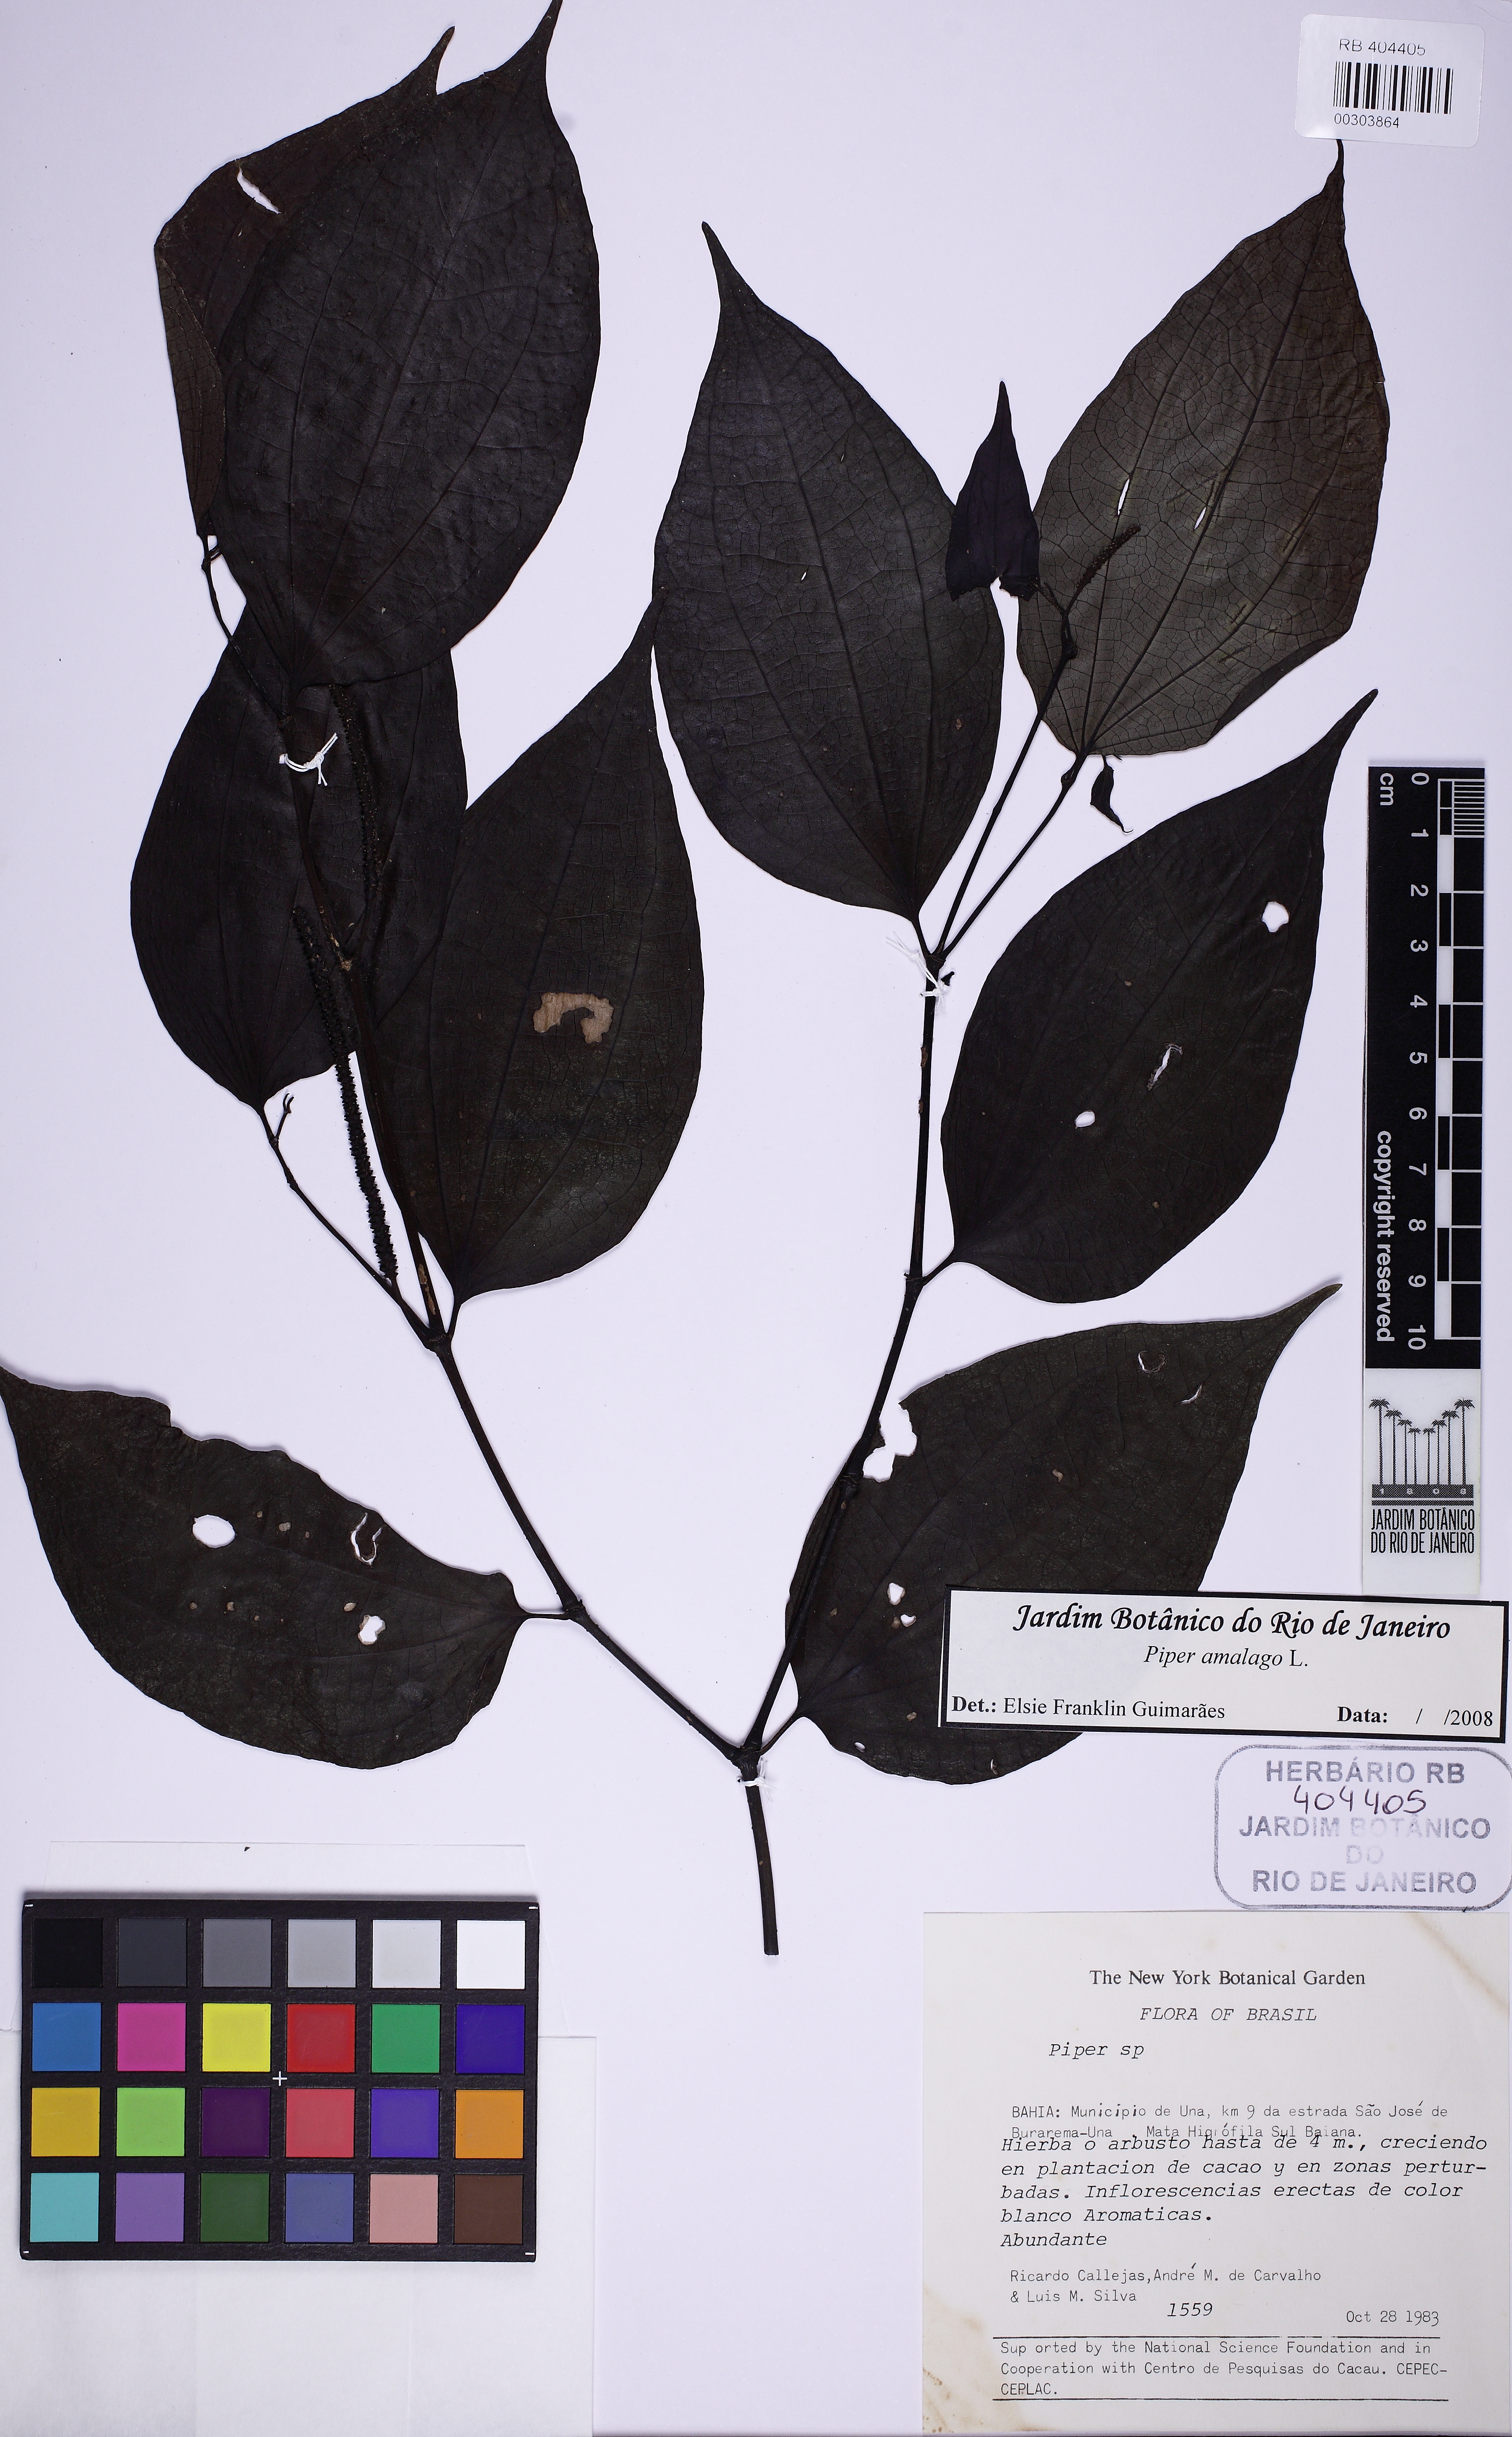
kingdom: Plantae
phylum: Tracheophyta
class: Magnoliopsida
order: Piperales
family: Piperaceae
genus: Piper
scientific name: Piper amalago
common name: Pepper-elder
